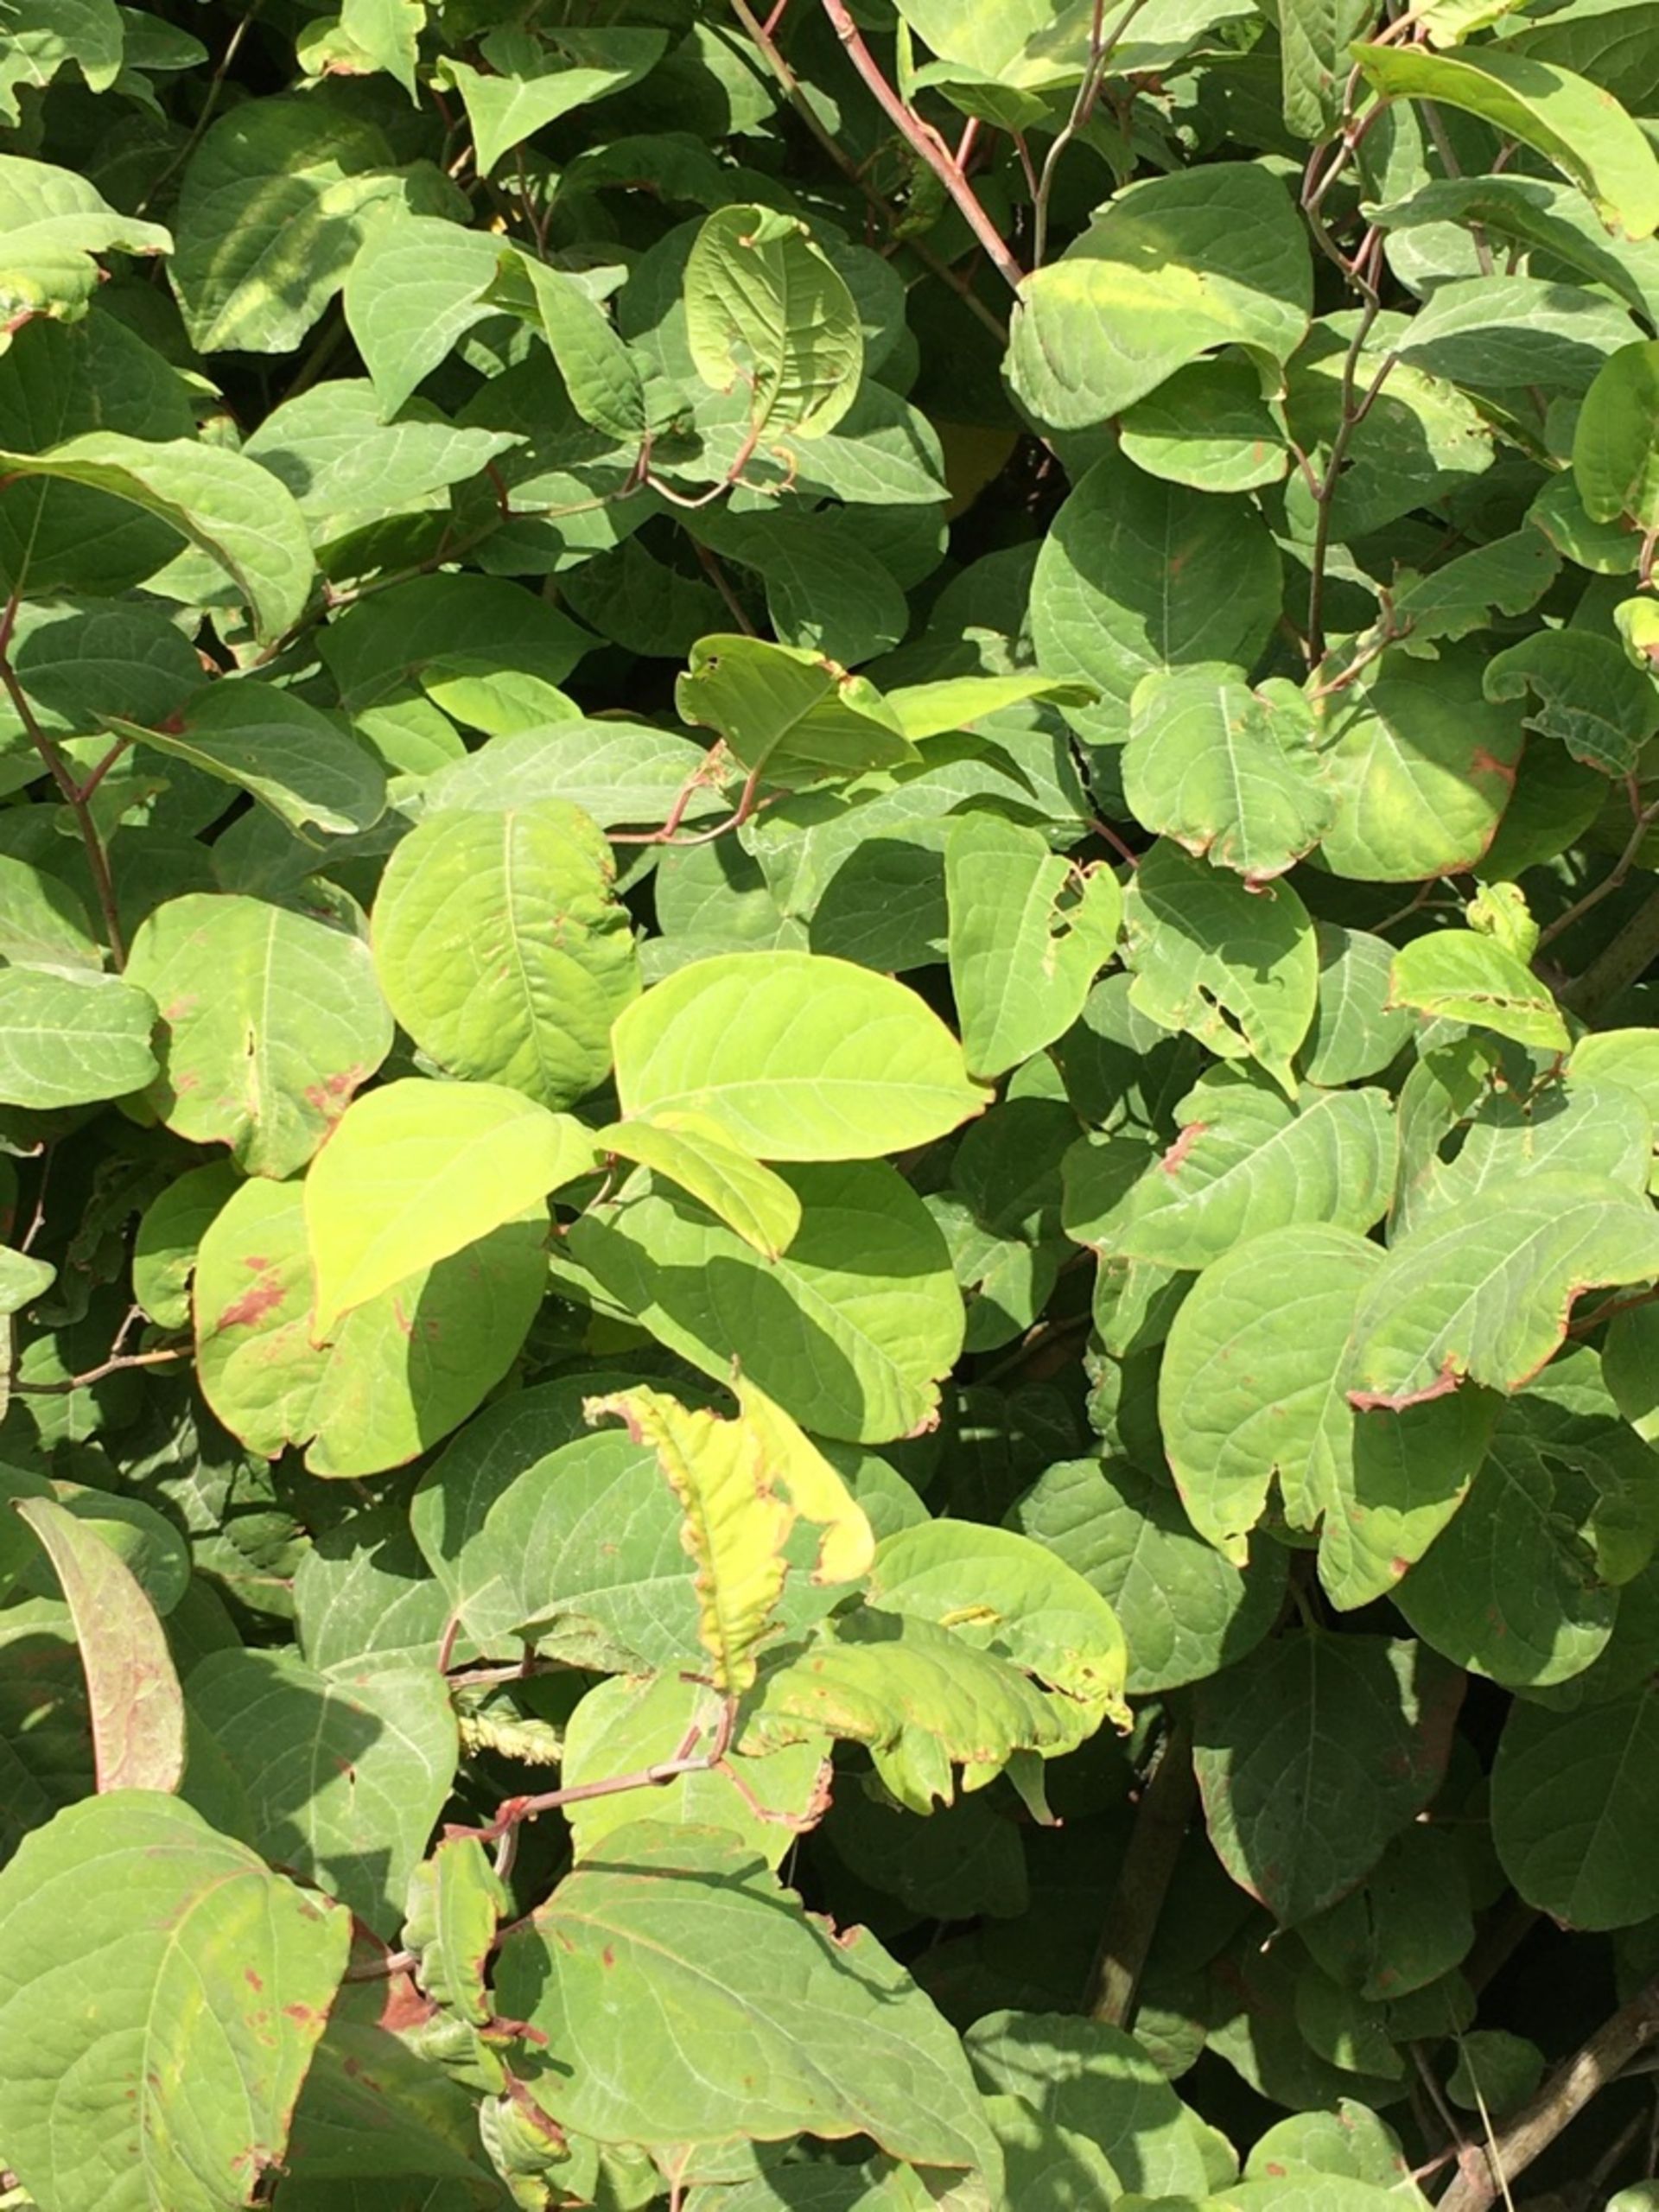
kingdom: Plantae
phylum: Tracheophyta
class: Magnoliopsida
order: Caryophyllales
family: Polygonaceae
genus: Reynoutria
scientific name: Reynoutria japonica
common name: Japan-pileurt
